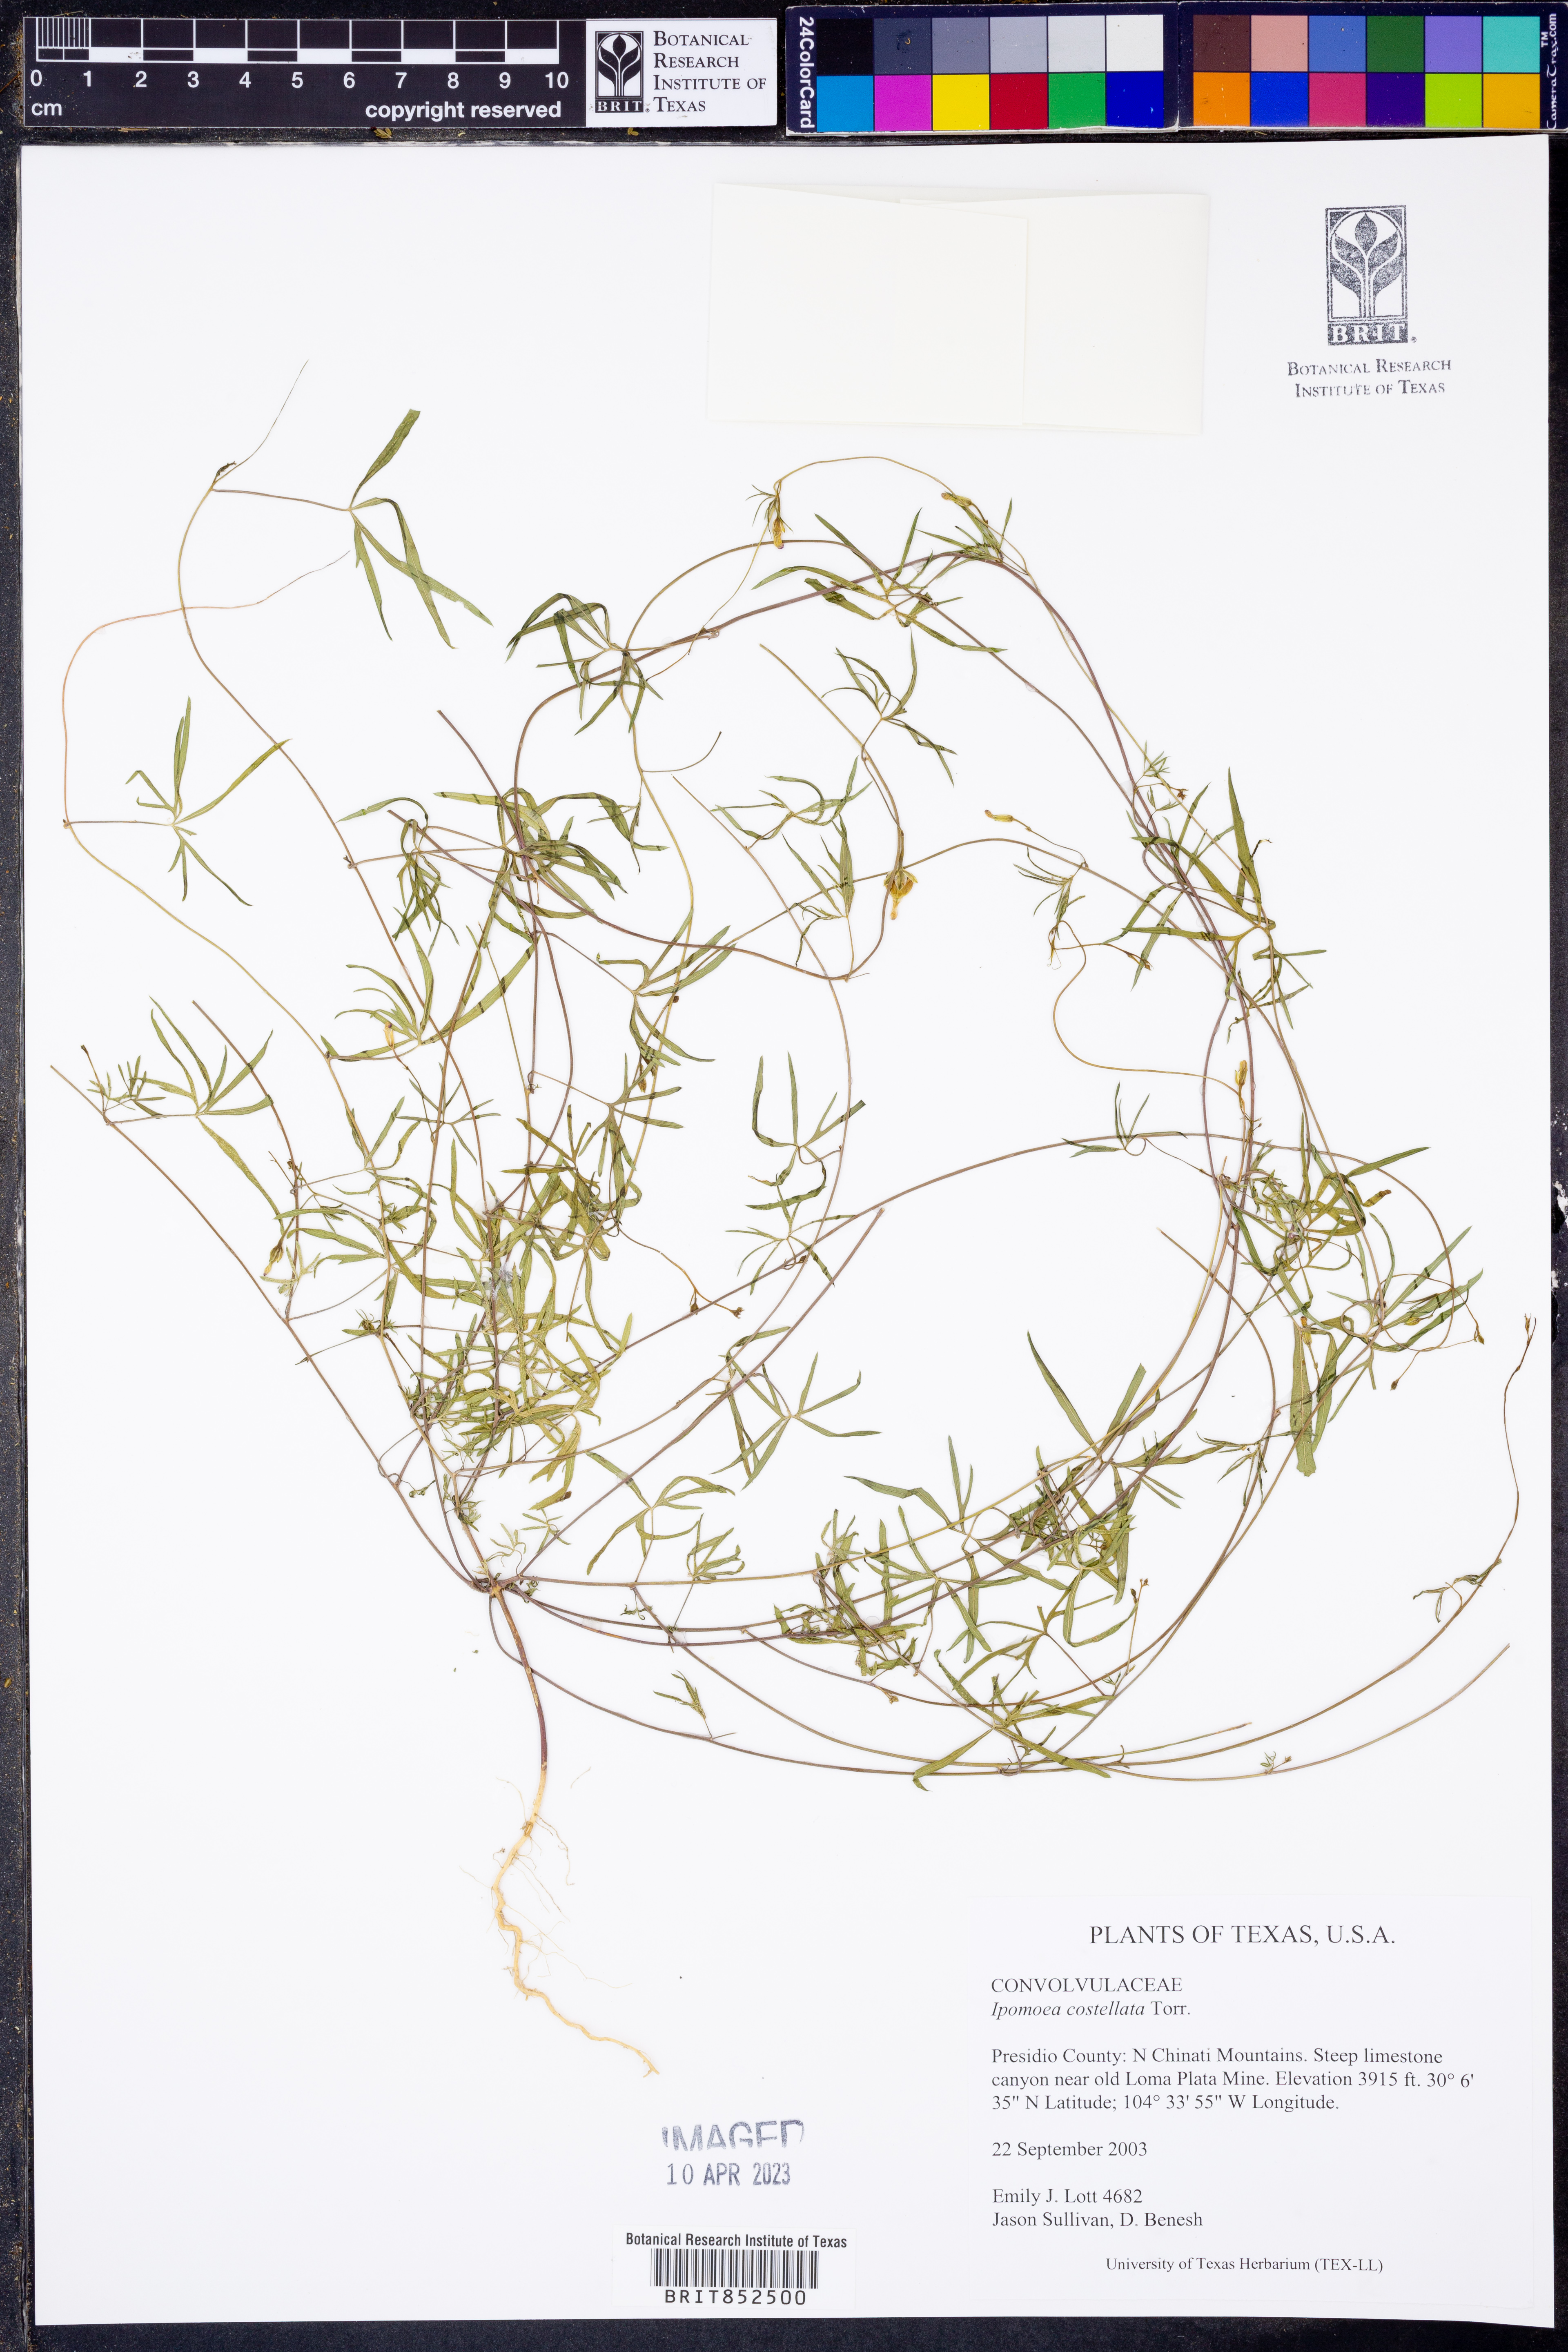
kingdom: Plantae
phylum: Tracheophyta
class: Magnoliopsida
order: Solanales
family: Convolvulaceae
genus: Ipomoea
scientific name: Ipomoea costellata
